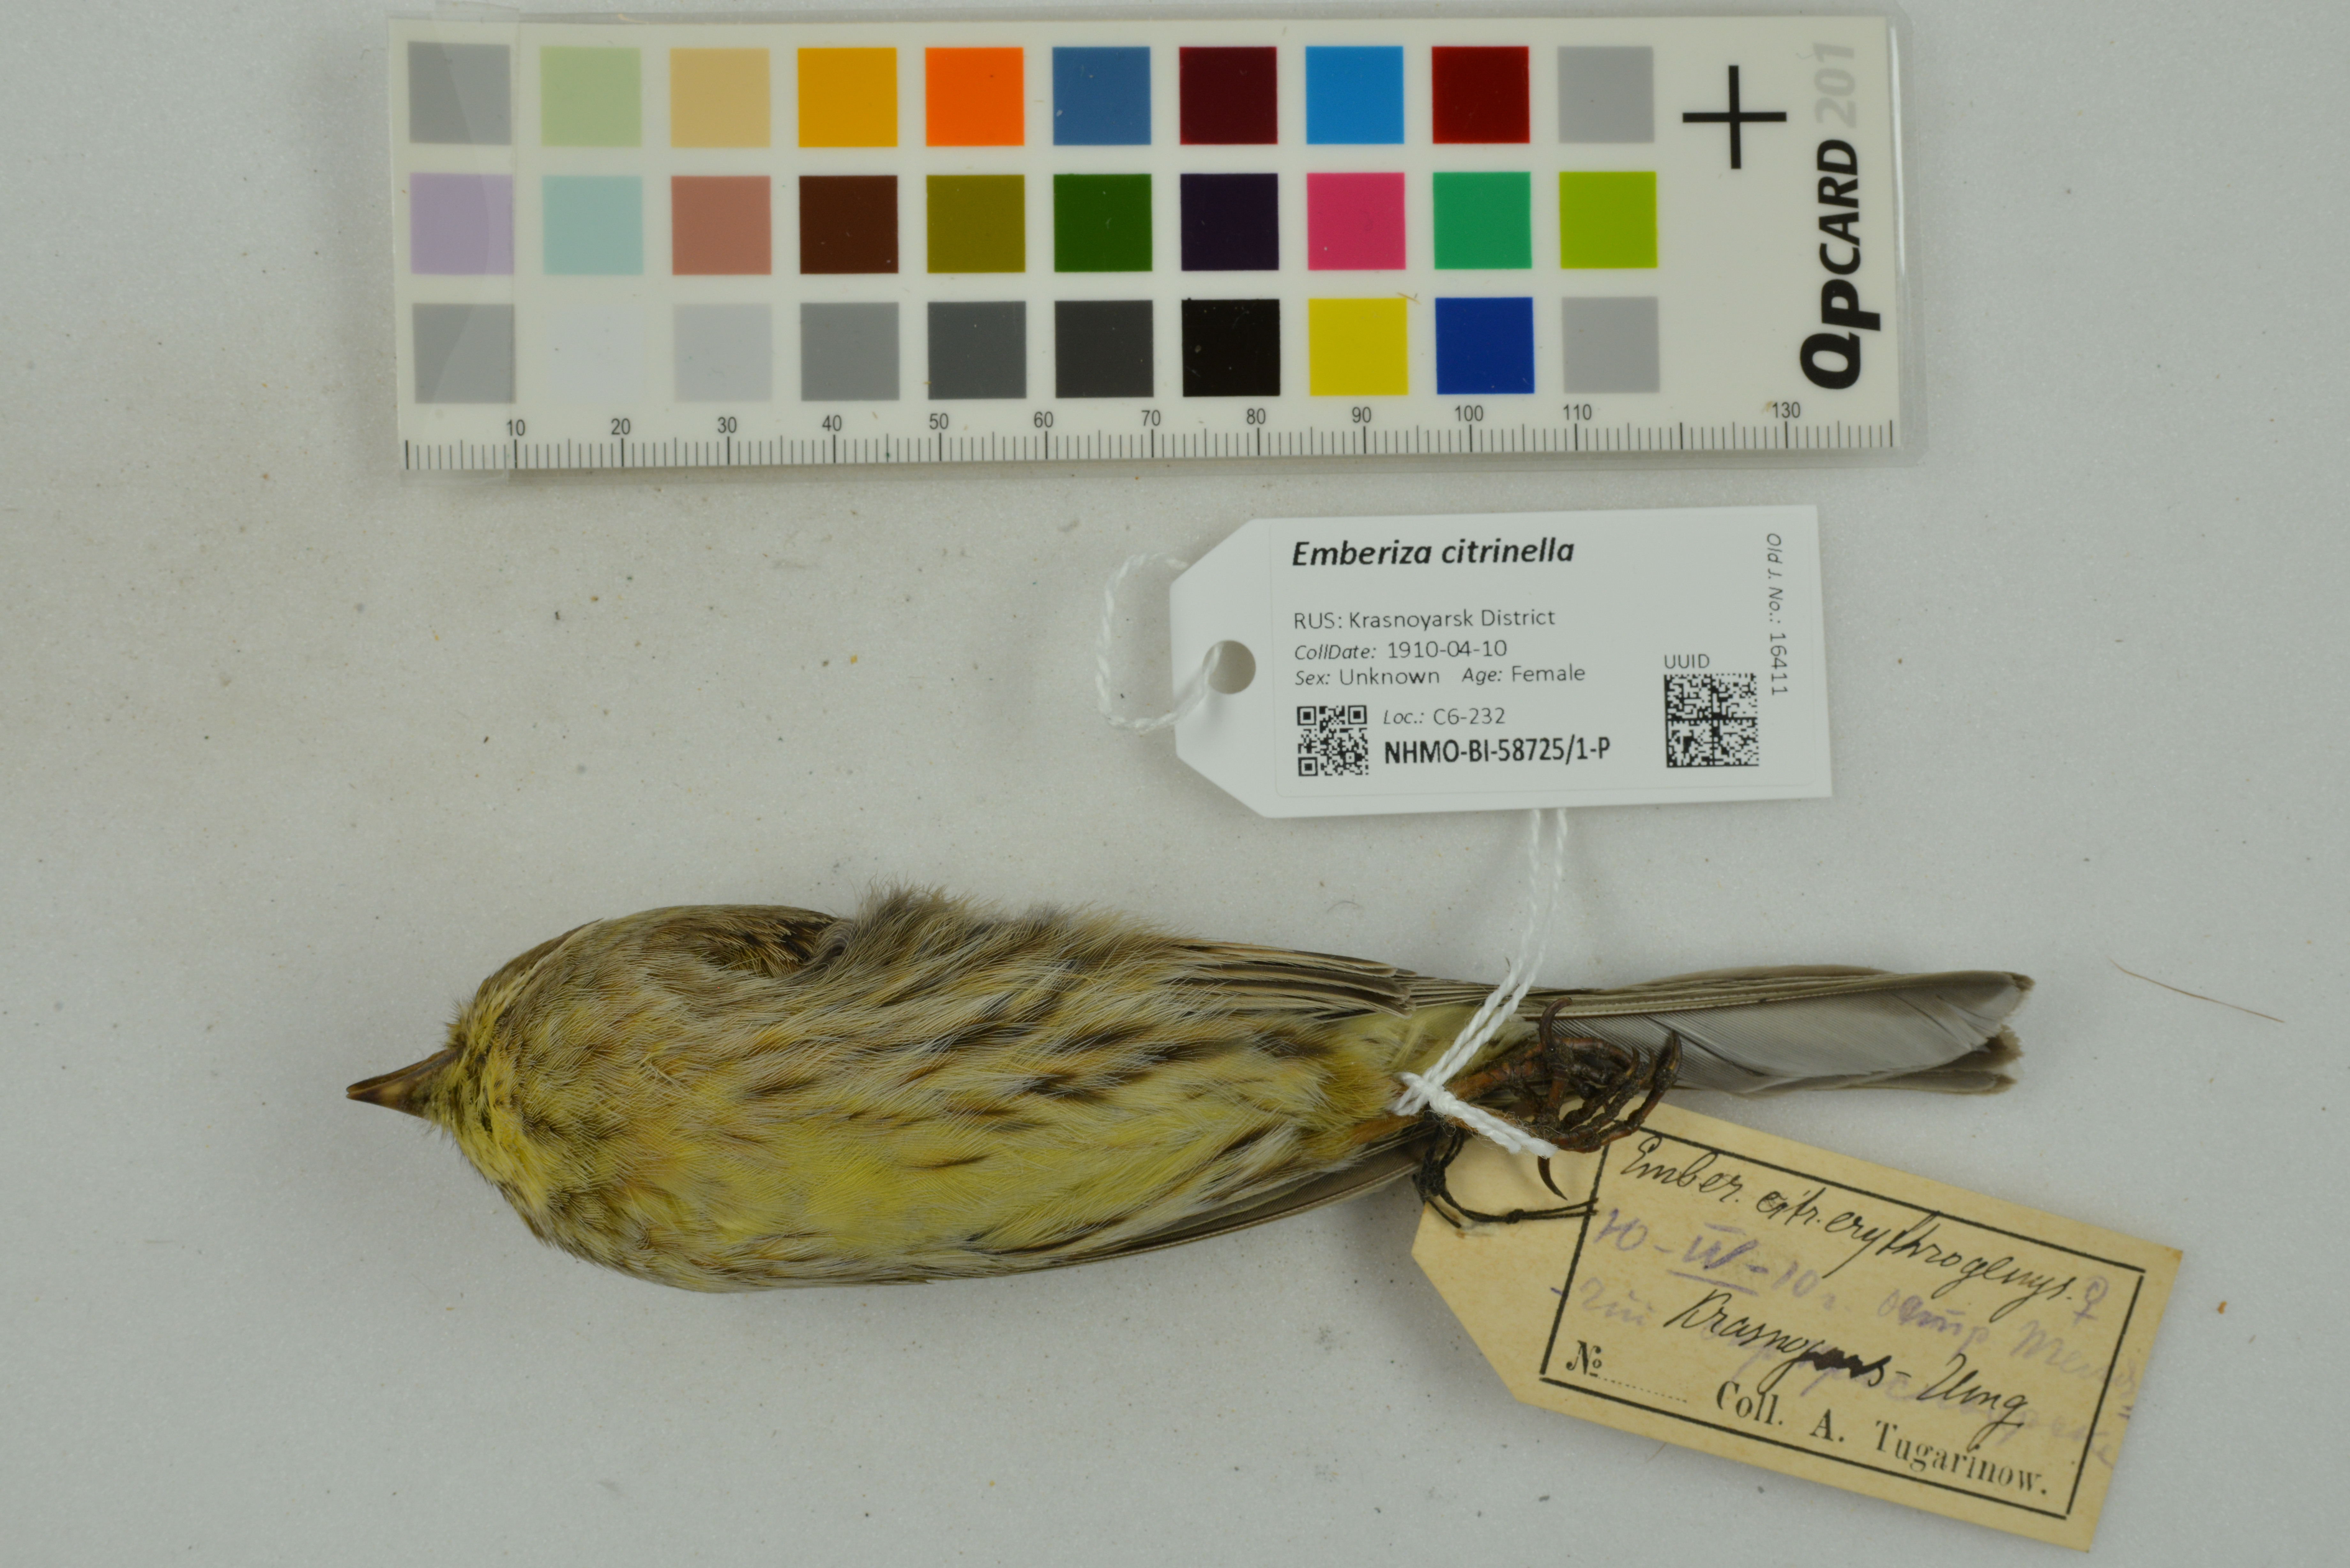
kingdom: Animalia
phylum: Chordata
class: Aves
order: Passeriformes
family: Emberizidae
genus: Emberiza
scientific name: Emberiza citrinella
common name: Yellowhammer
